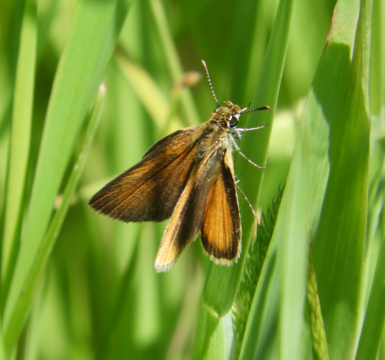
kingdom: Animalia
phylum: Arthropoda
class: Insecta
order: Lepidoptera
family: Hesperiidae
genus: Ancyloxypha
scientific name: Ancyloxypha numitor
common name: Least Skipper
